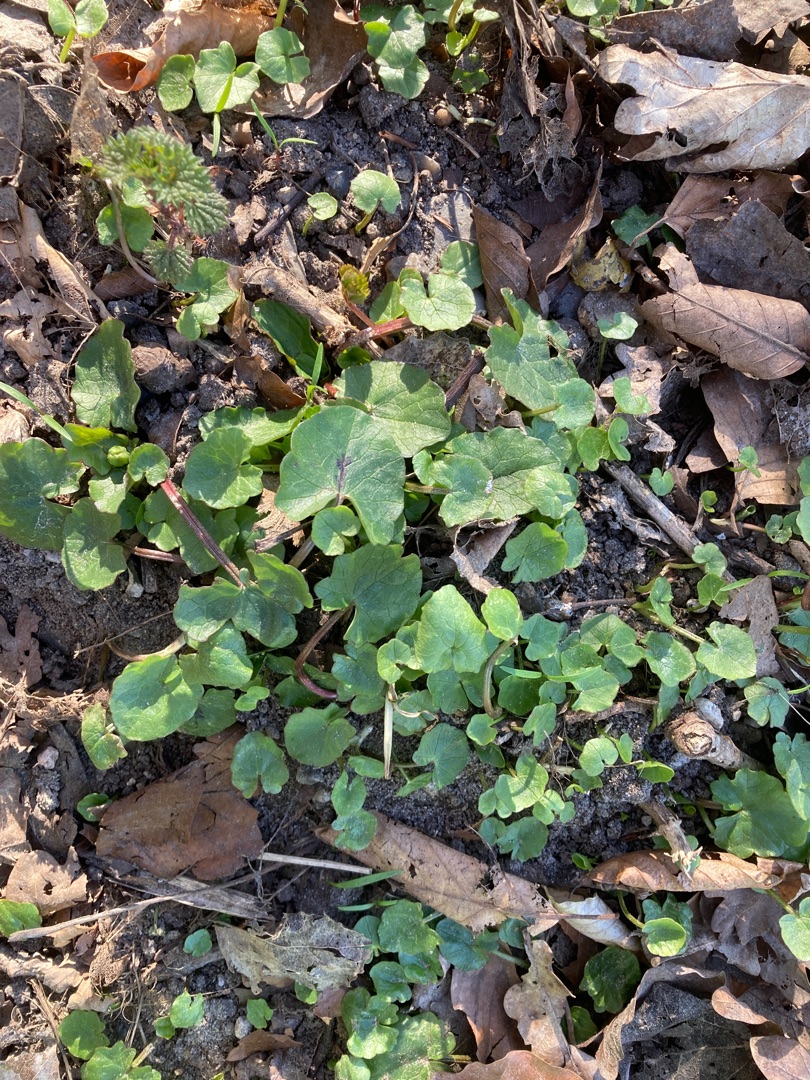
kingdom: Plantae
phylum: Tracheophyta
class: Magnoliopsida
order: Ranunculales
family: Ranunculaceae
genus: Ficaria
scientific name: Ficaria verna
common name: Vorterod
